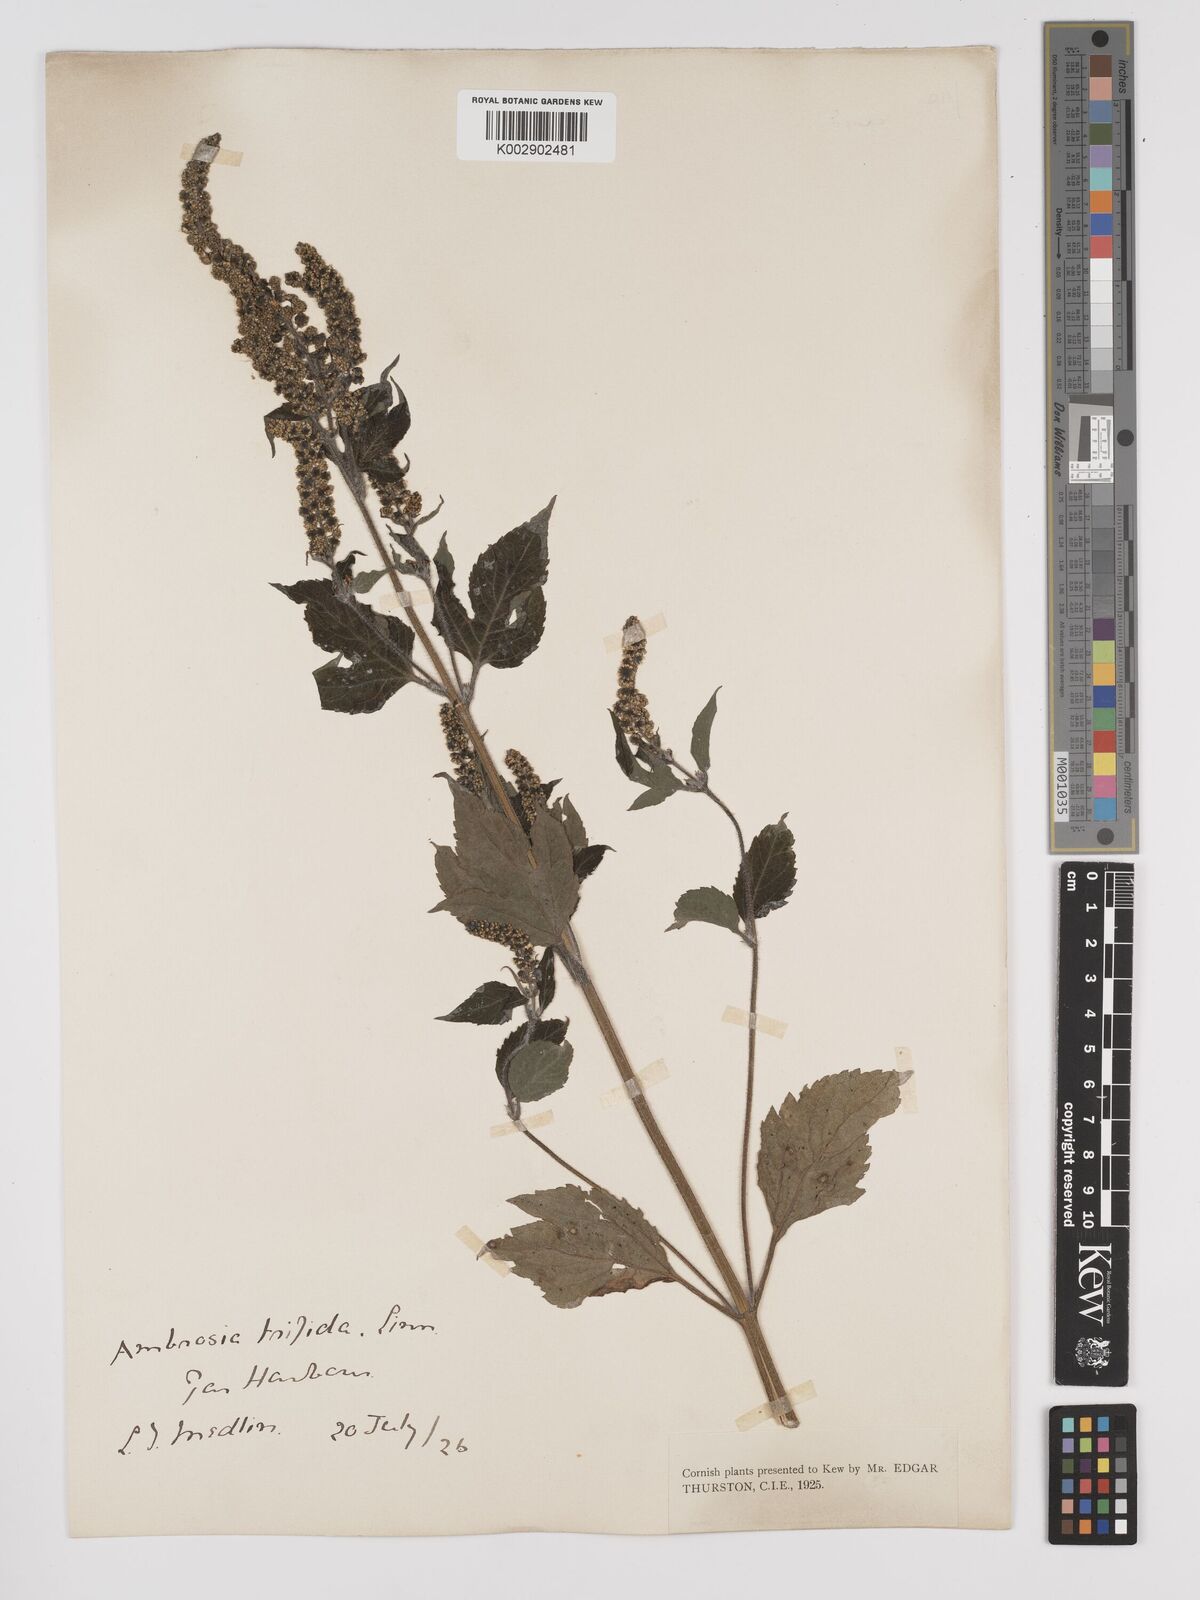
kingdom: Plantae
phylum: Tracheophyta
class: Magnoliopsida
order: Asterales
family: Asteraceae
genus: Ambrosia
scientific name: Ambrosia trifida
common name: Giant ragweed
